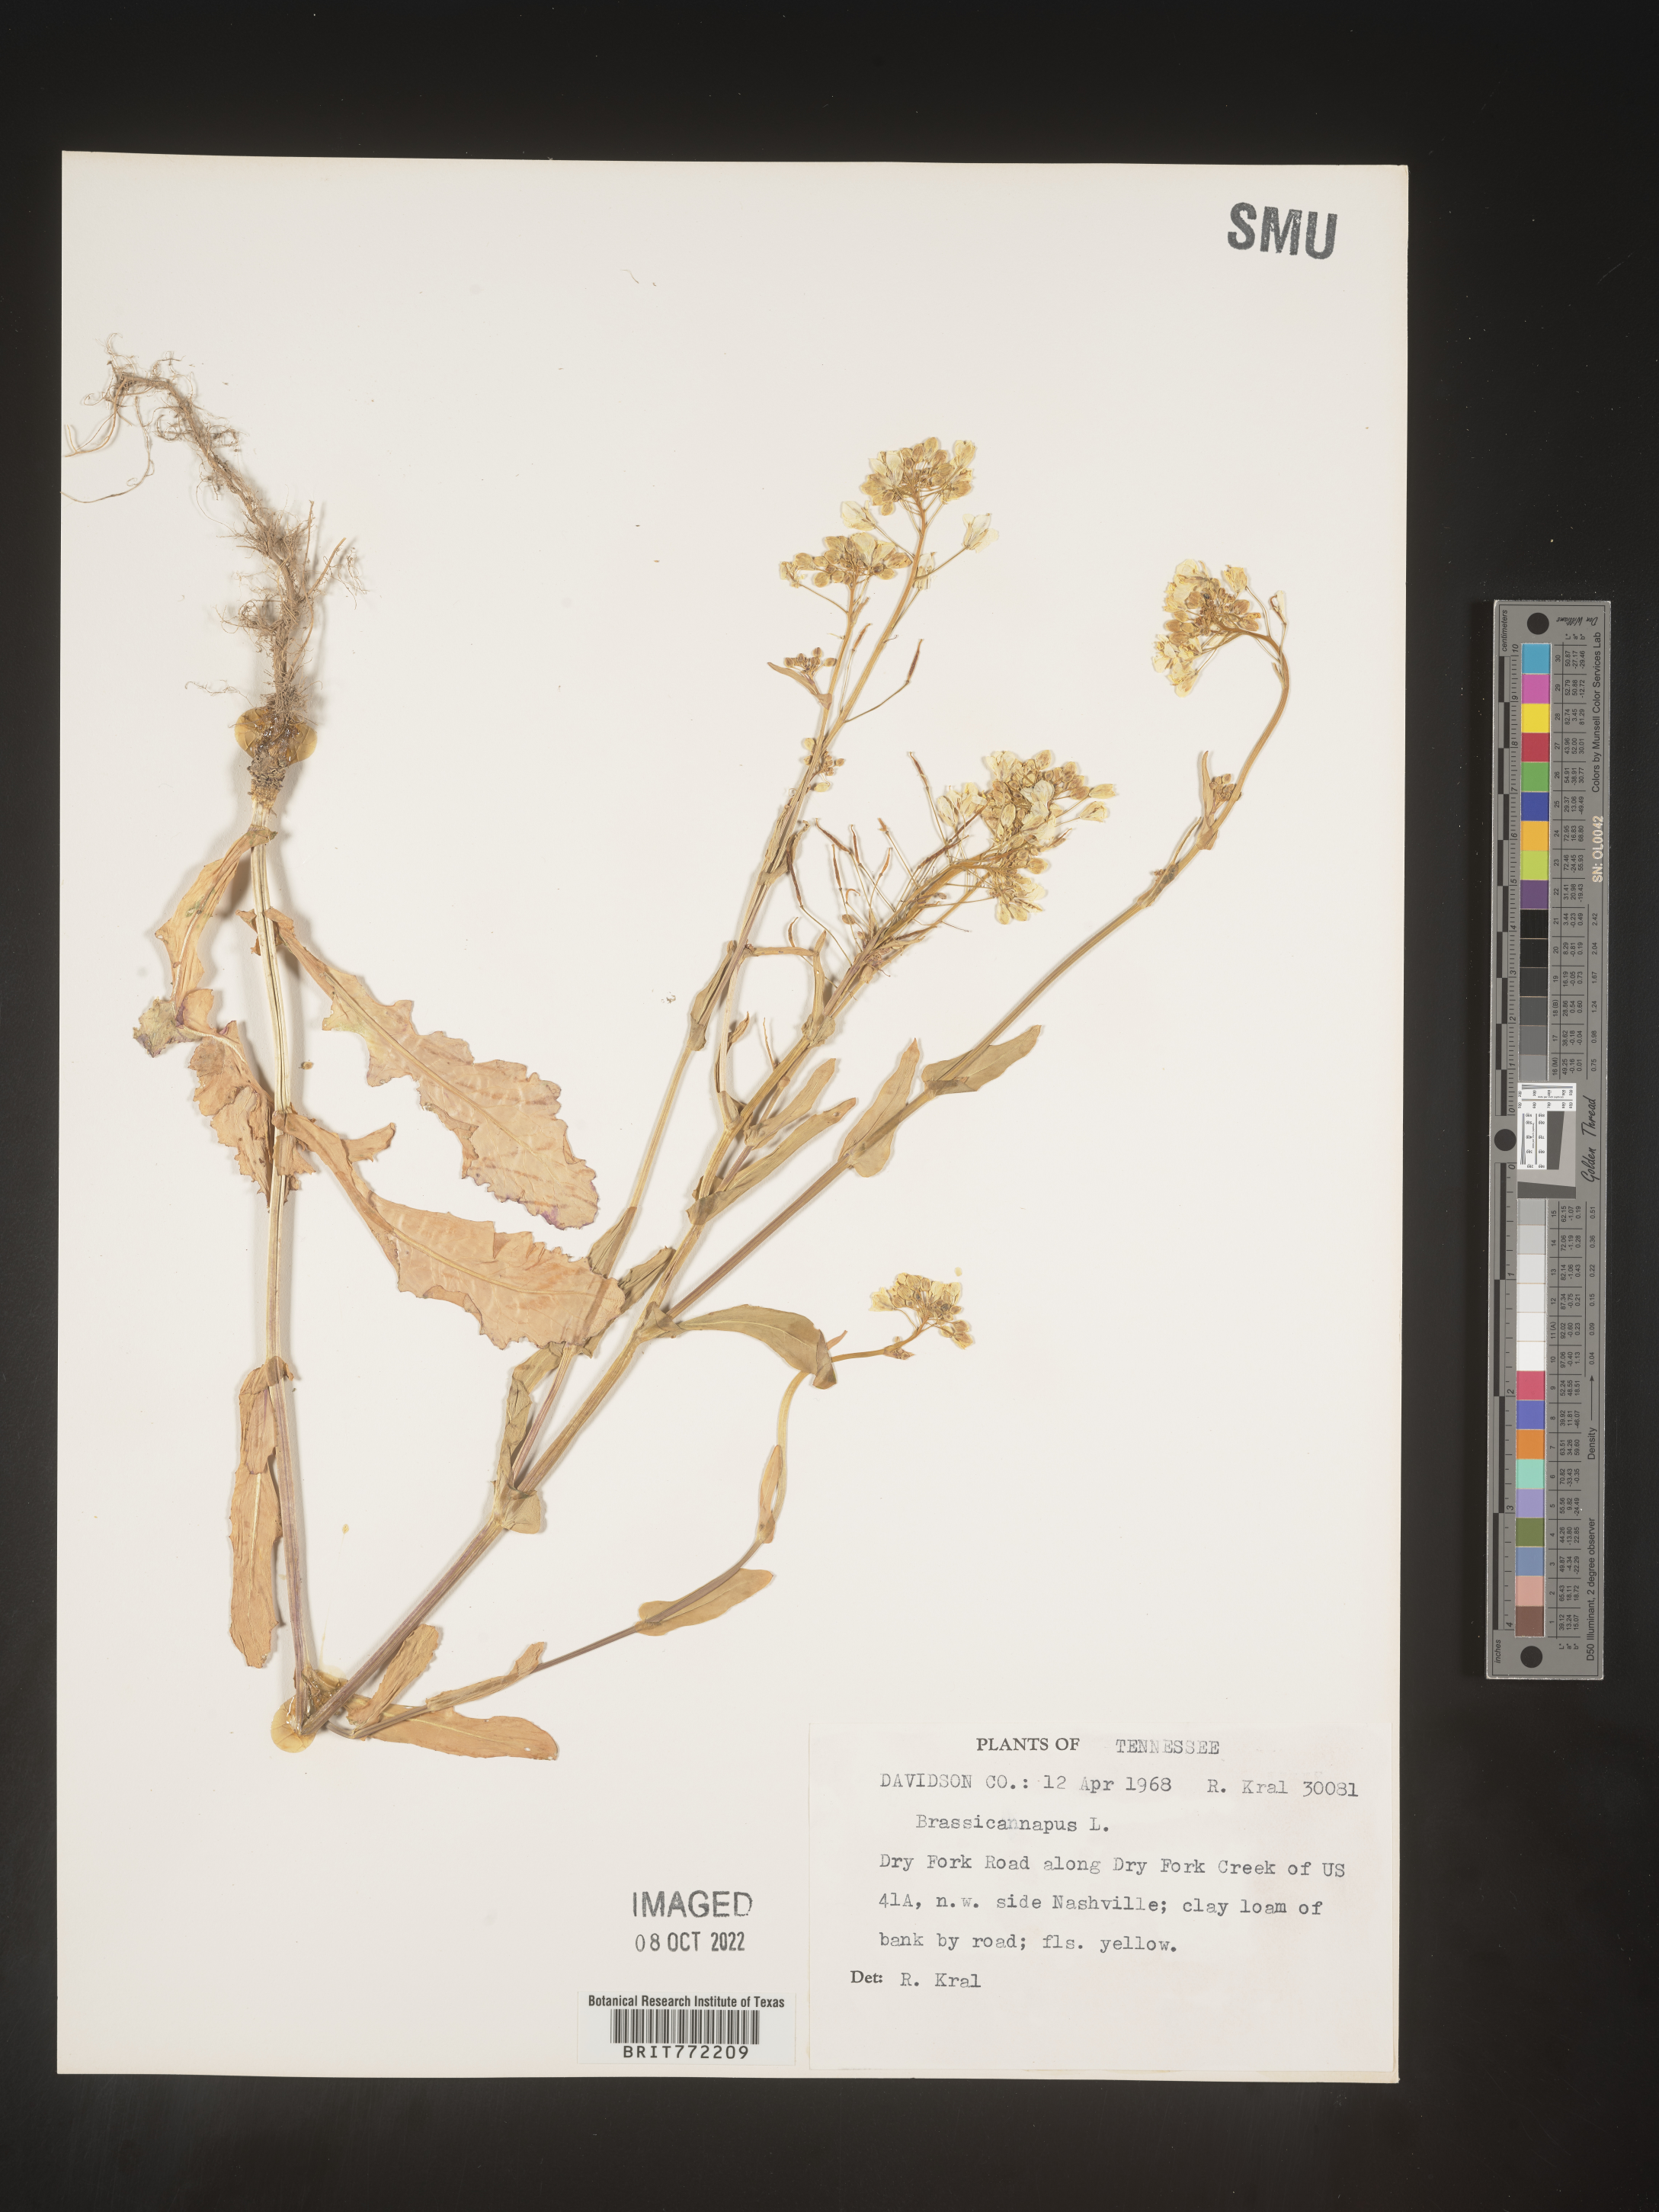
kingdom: Plantae
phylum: Tracheophyta
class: Magnoliopsida
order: Brassicales
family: Brassicaceae
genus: Brassica
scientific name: Brassica napus
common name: Rape
